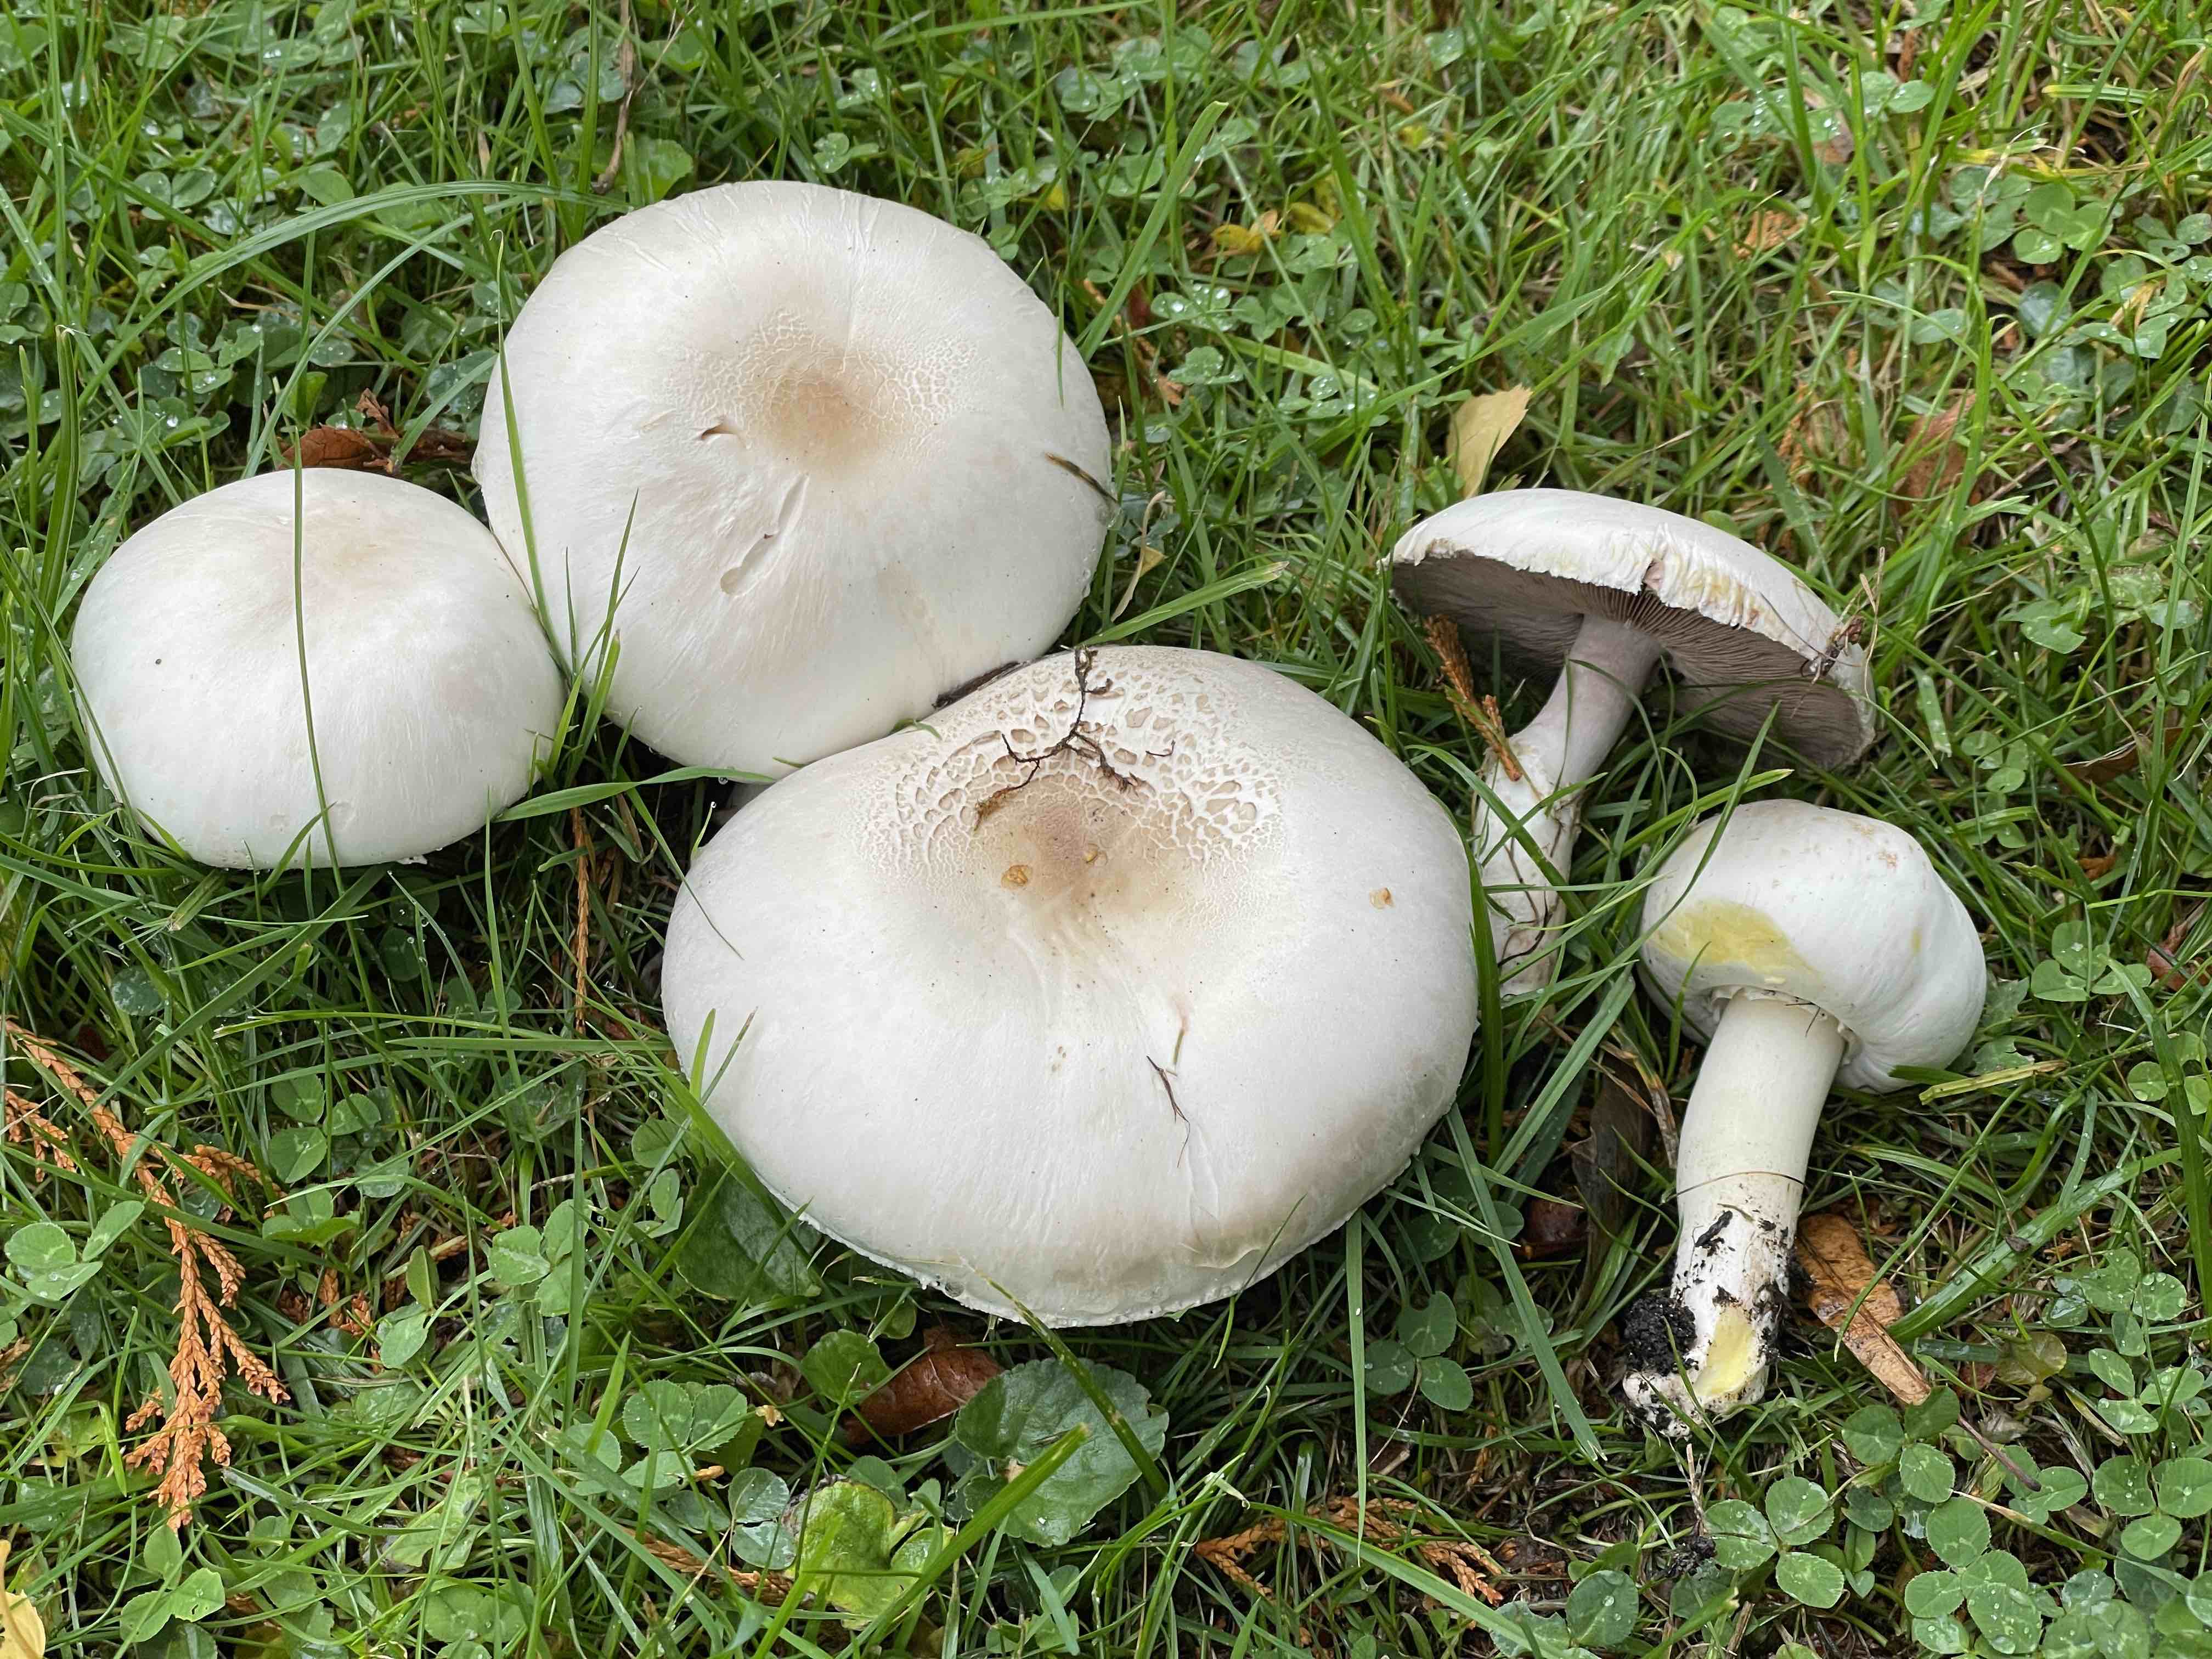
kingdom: Fungi
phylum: Basidiomycota
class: Agaricomycetes
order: Agaricales
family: Agaricaceae
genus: Agaricus
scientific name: Agaricus xanthodermus
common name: karbol-champignon
